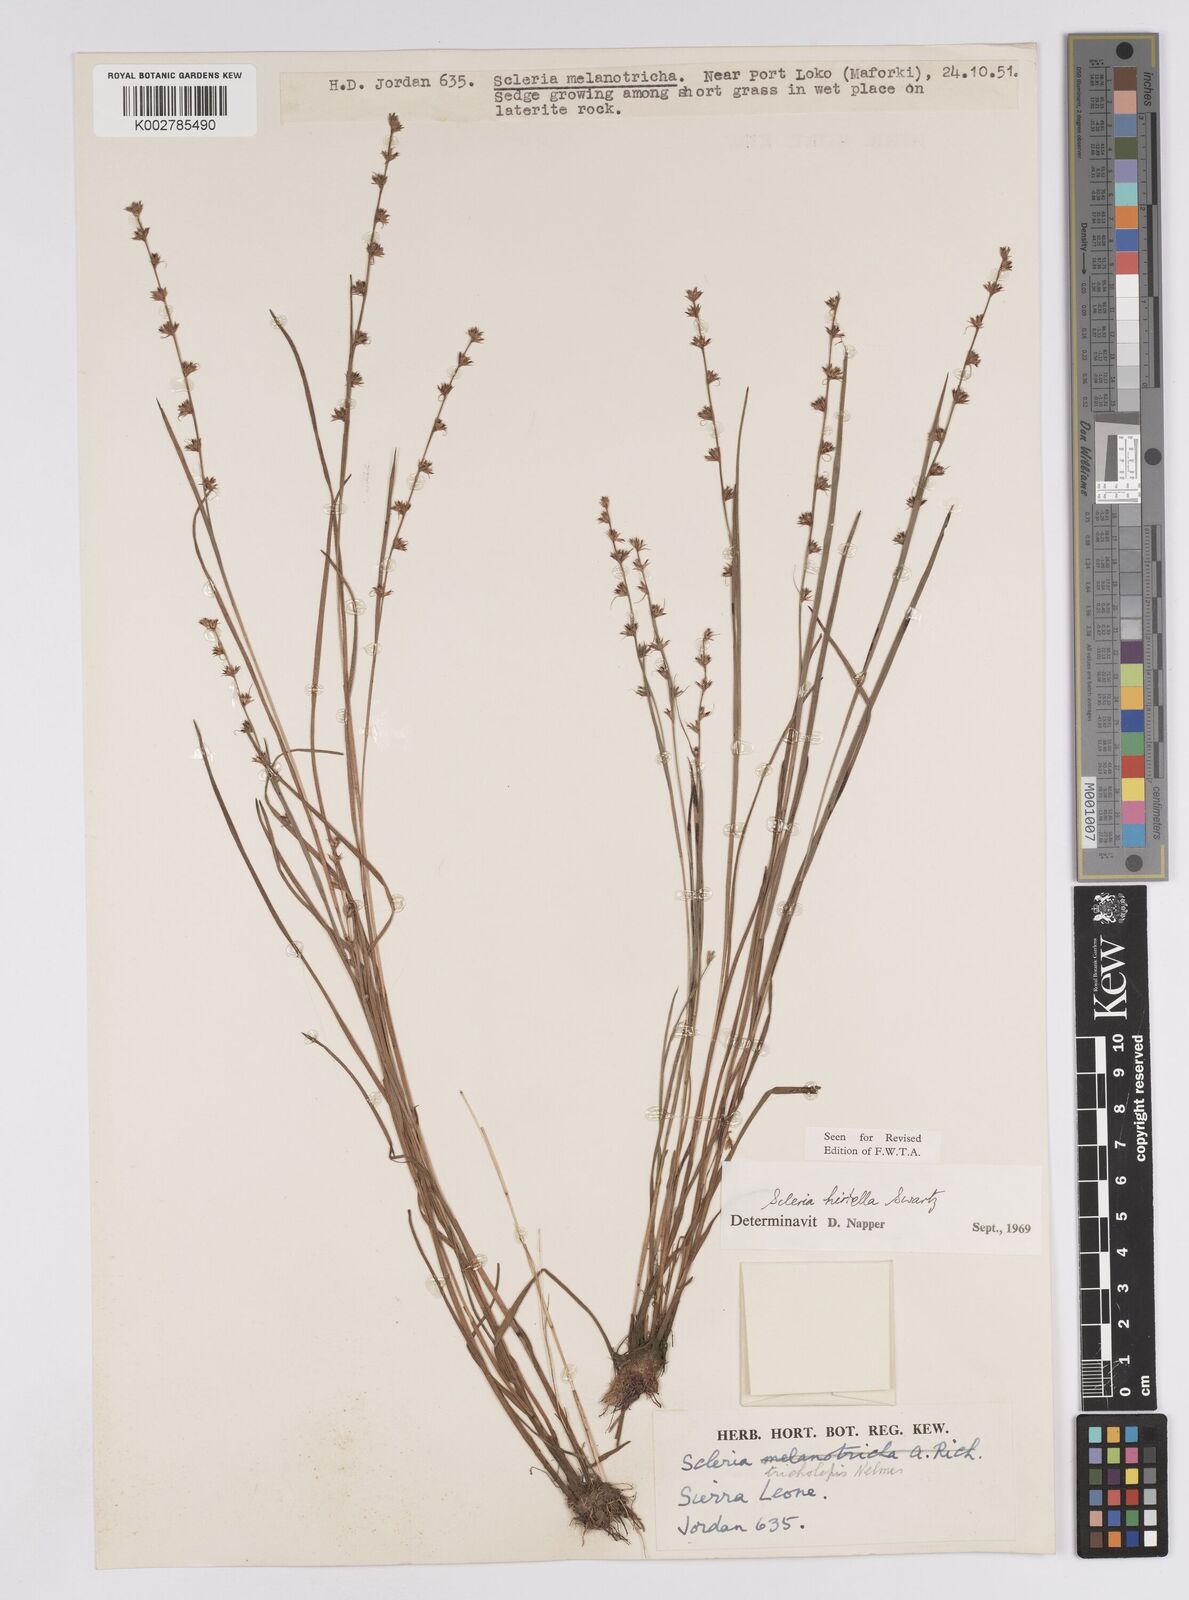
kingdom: Plantae
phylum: Tracheophyta
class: Liliopsida
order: Poales
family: Cyperaceae
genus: Scleria
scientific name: Scleria tricholepis
